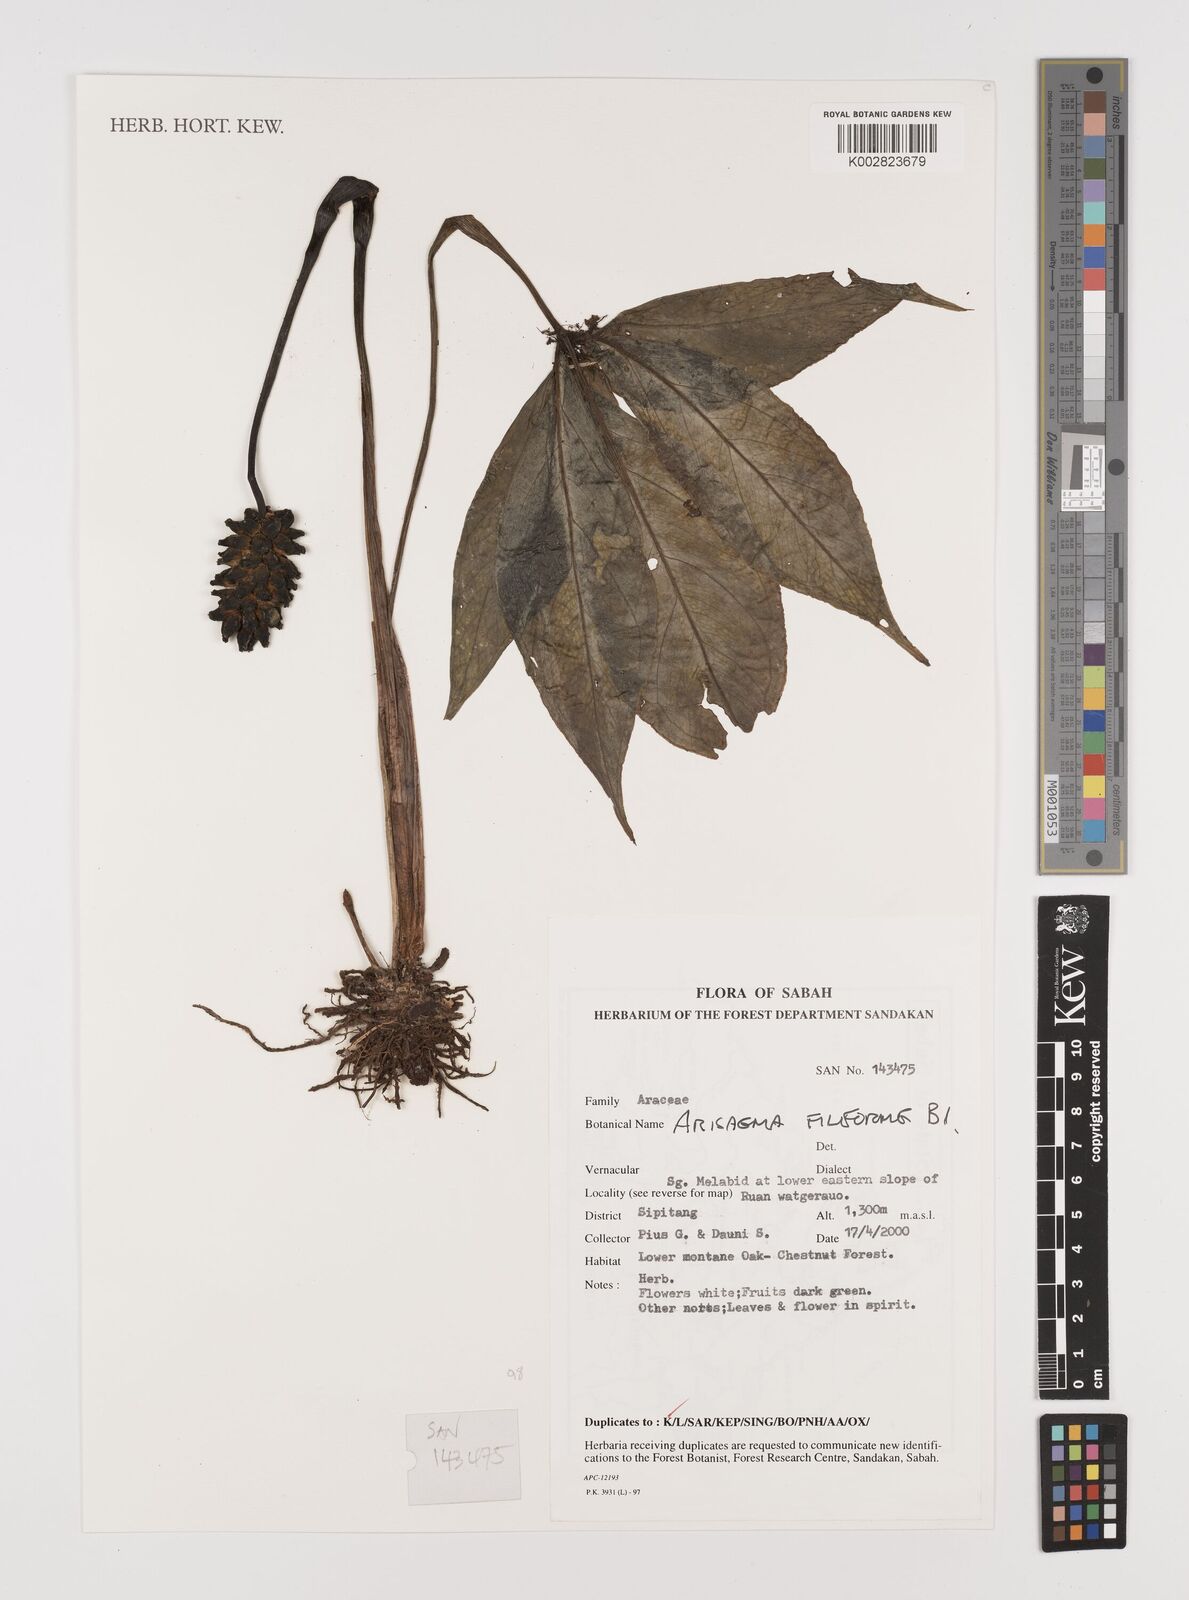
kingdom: Plantae
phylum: Tracheophyta
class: Liliopsida
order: Alismatales
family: Araceae
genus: Arisaema
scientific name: Arisaema filiforme
